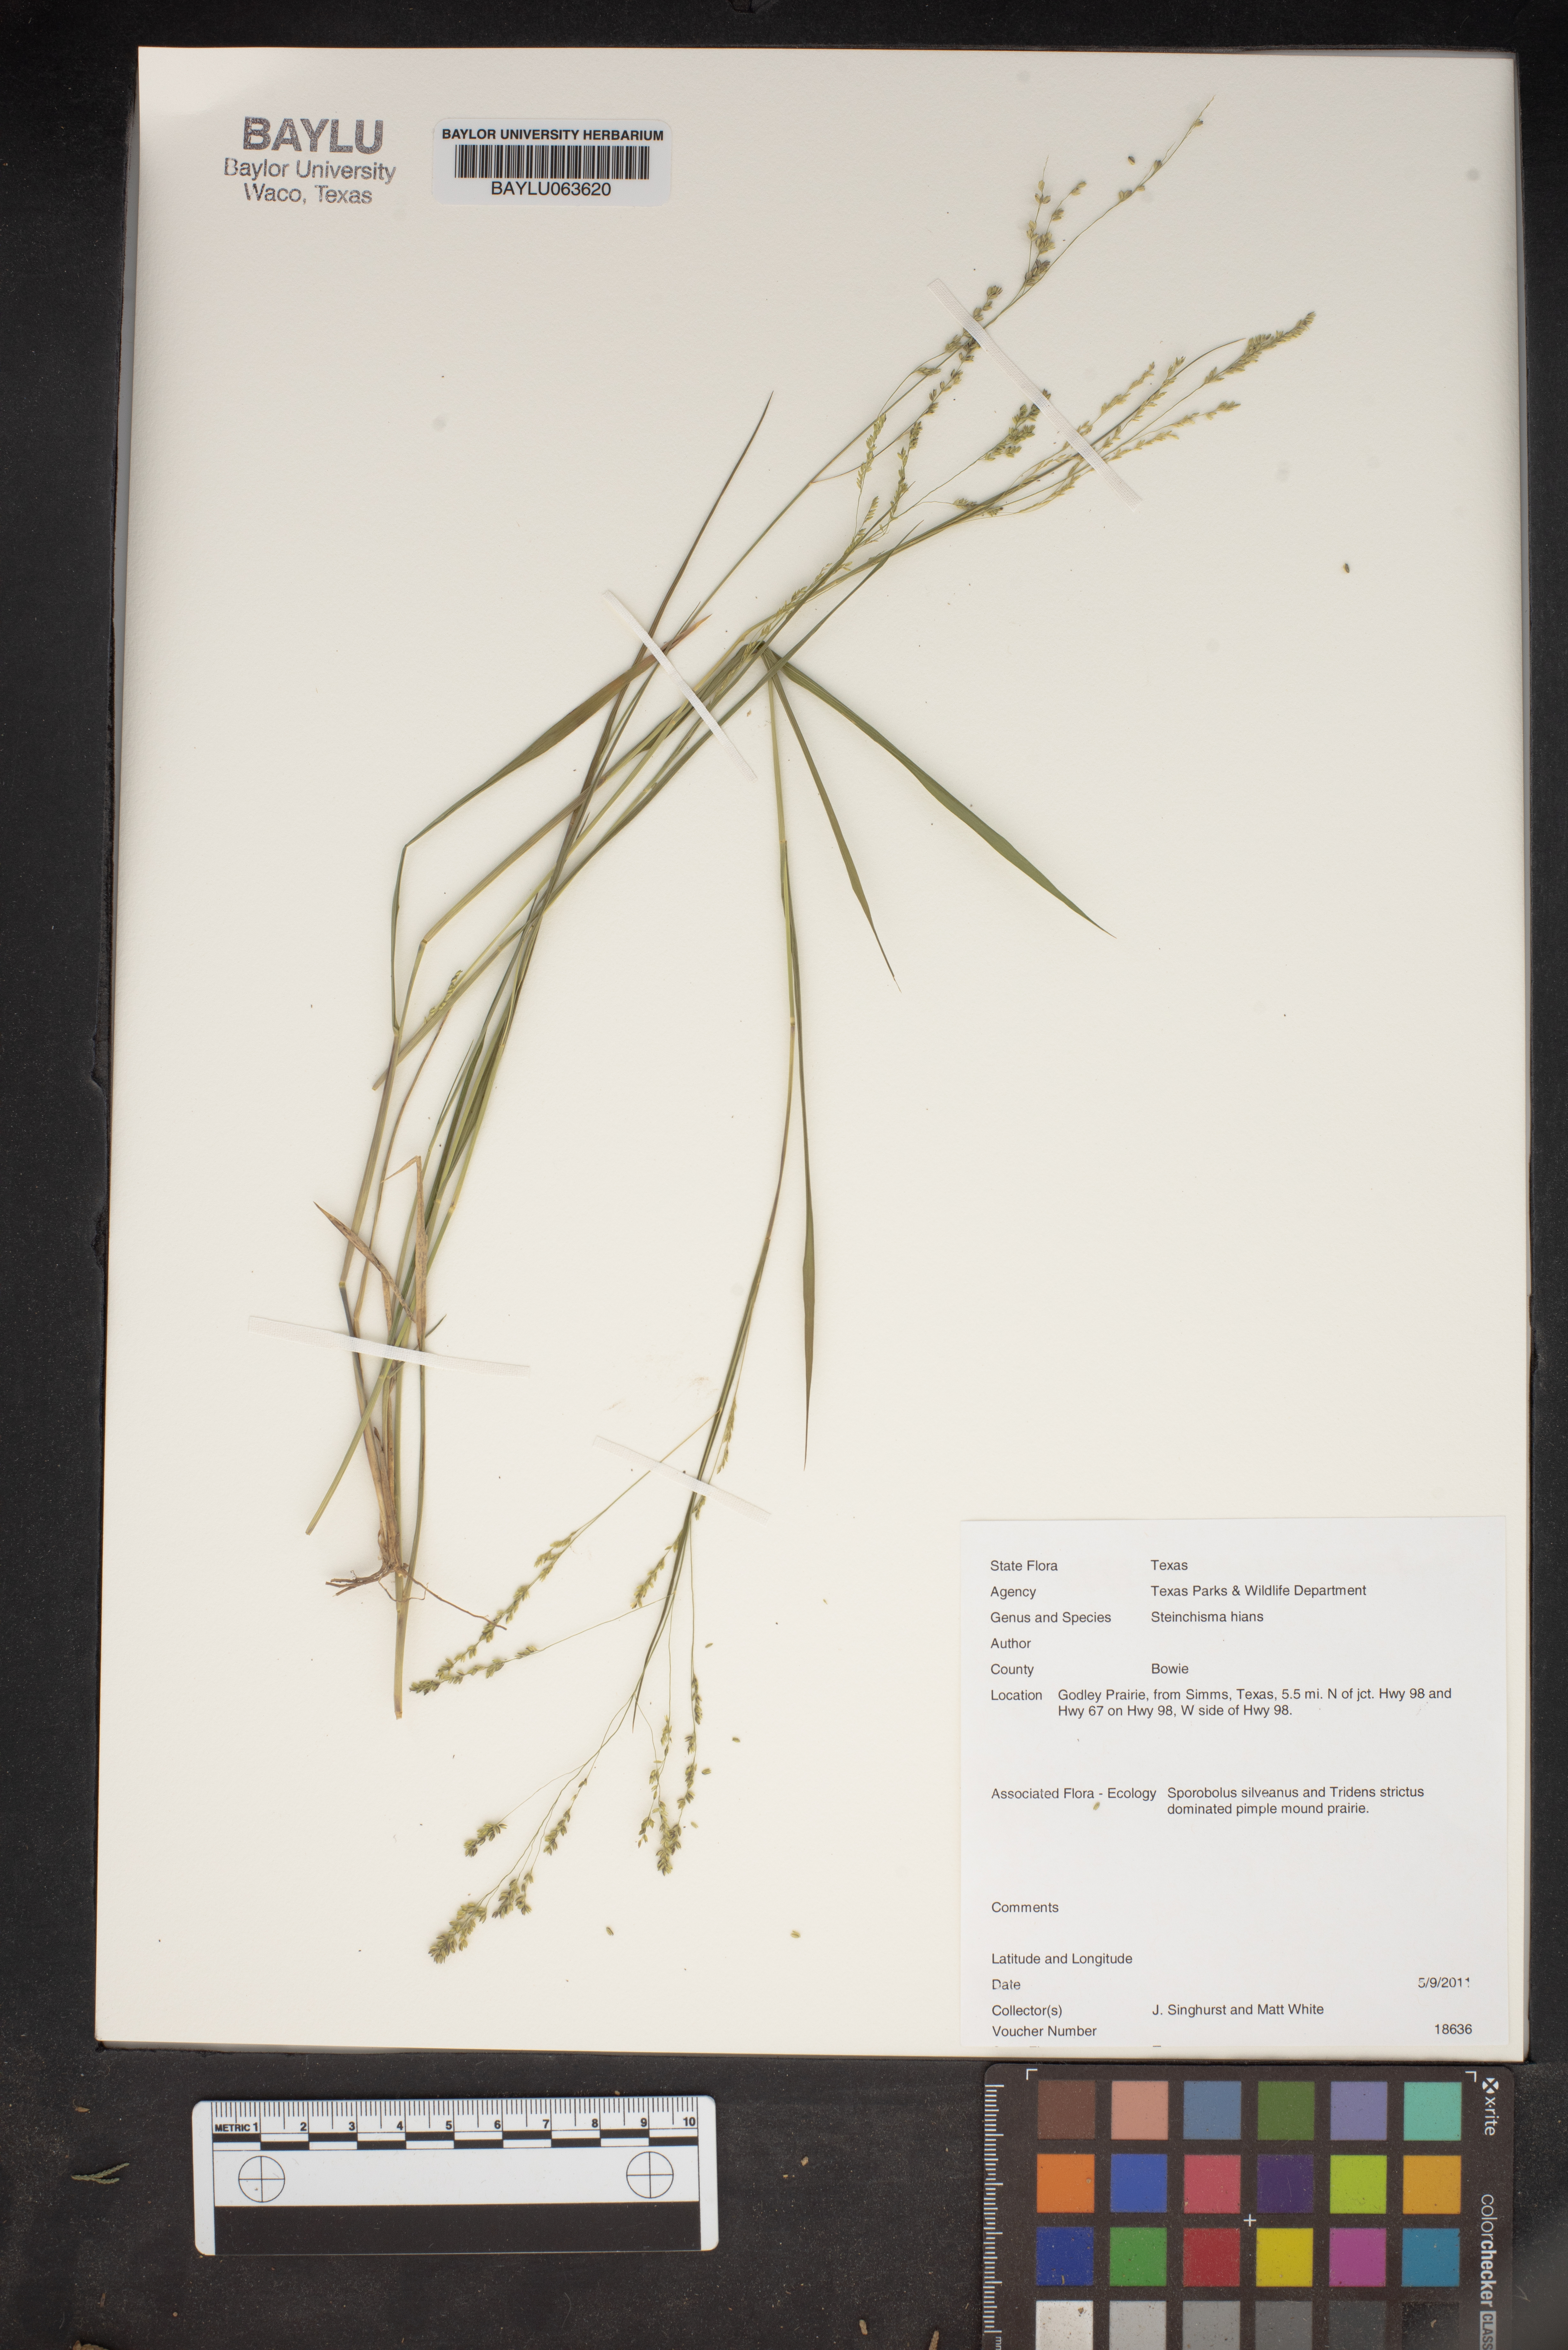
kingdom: Plantae
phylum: Tracheophyta
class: Liliopsida
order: Poales
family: Poaceae
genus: Steinchisma
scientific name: Steinchisma hians
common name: Gaping panic grass
